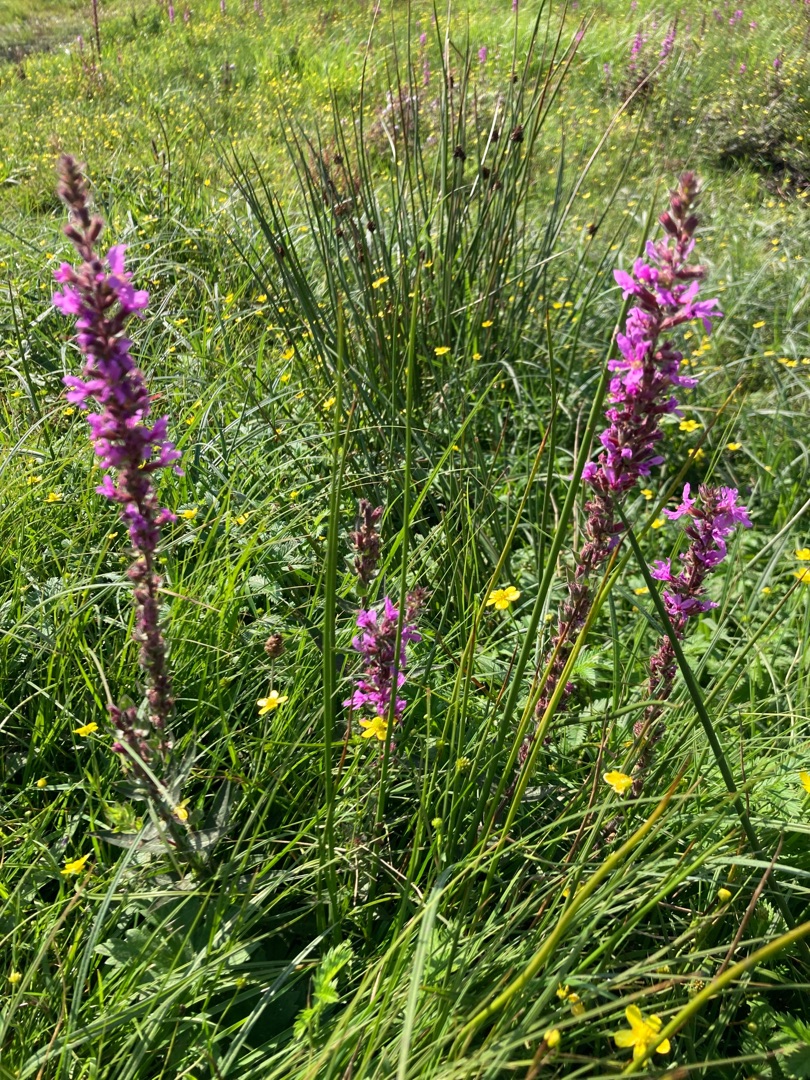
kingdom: Plantae
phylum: Tracheophyta
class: Magnoliopsida
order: Myrtales
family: Lythraceae
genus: Lythrum
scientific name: Lythrum salicaria
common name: Kattehale
